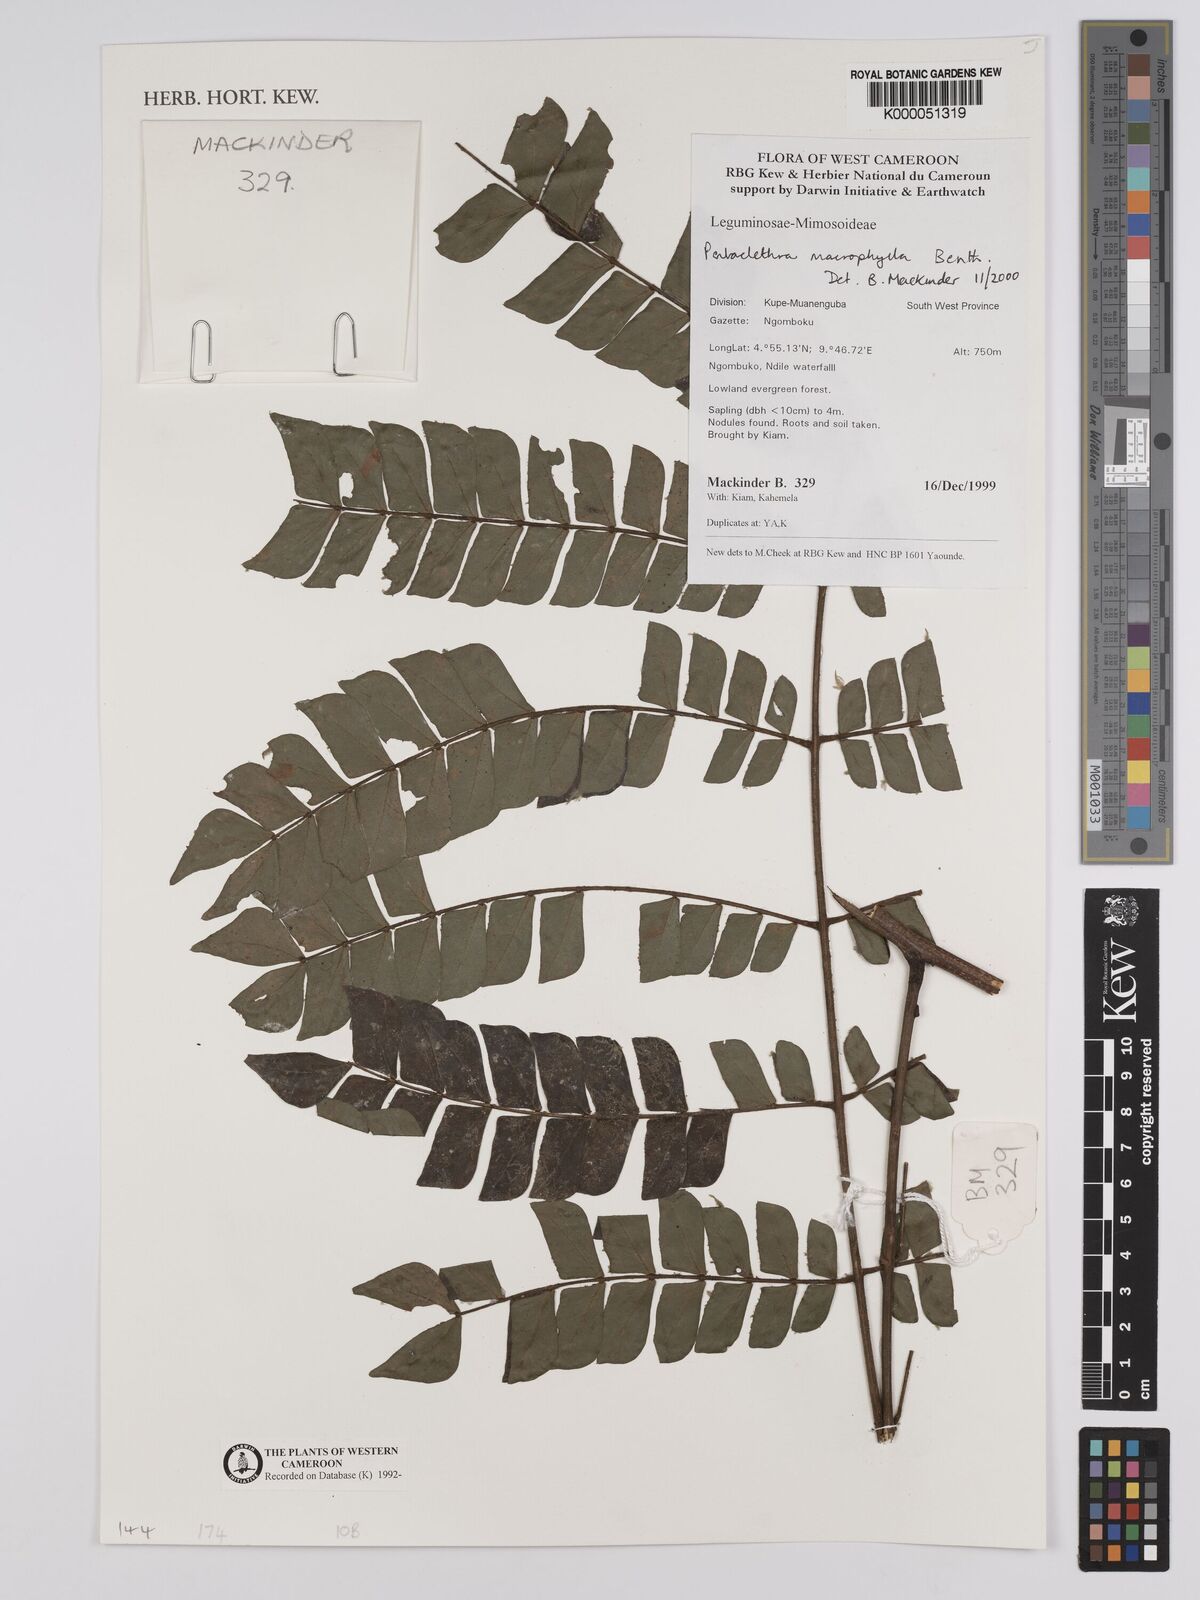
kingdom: Plantae
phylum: Tracheophyta
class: Magnoliopsida
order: Fabales
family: Fabaceae
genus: Pentaclethra
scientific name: Pentaclethra macrophylla
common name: African oil bean
